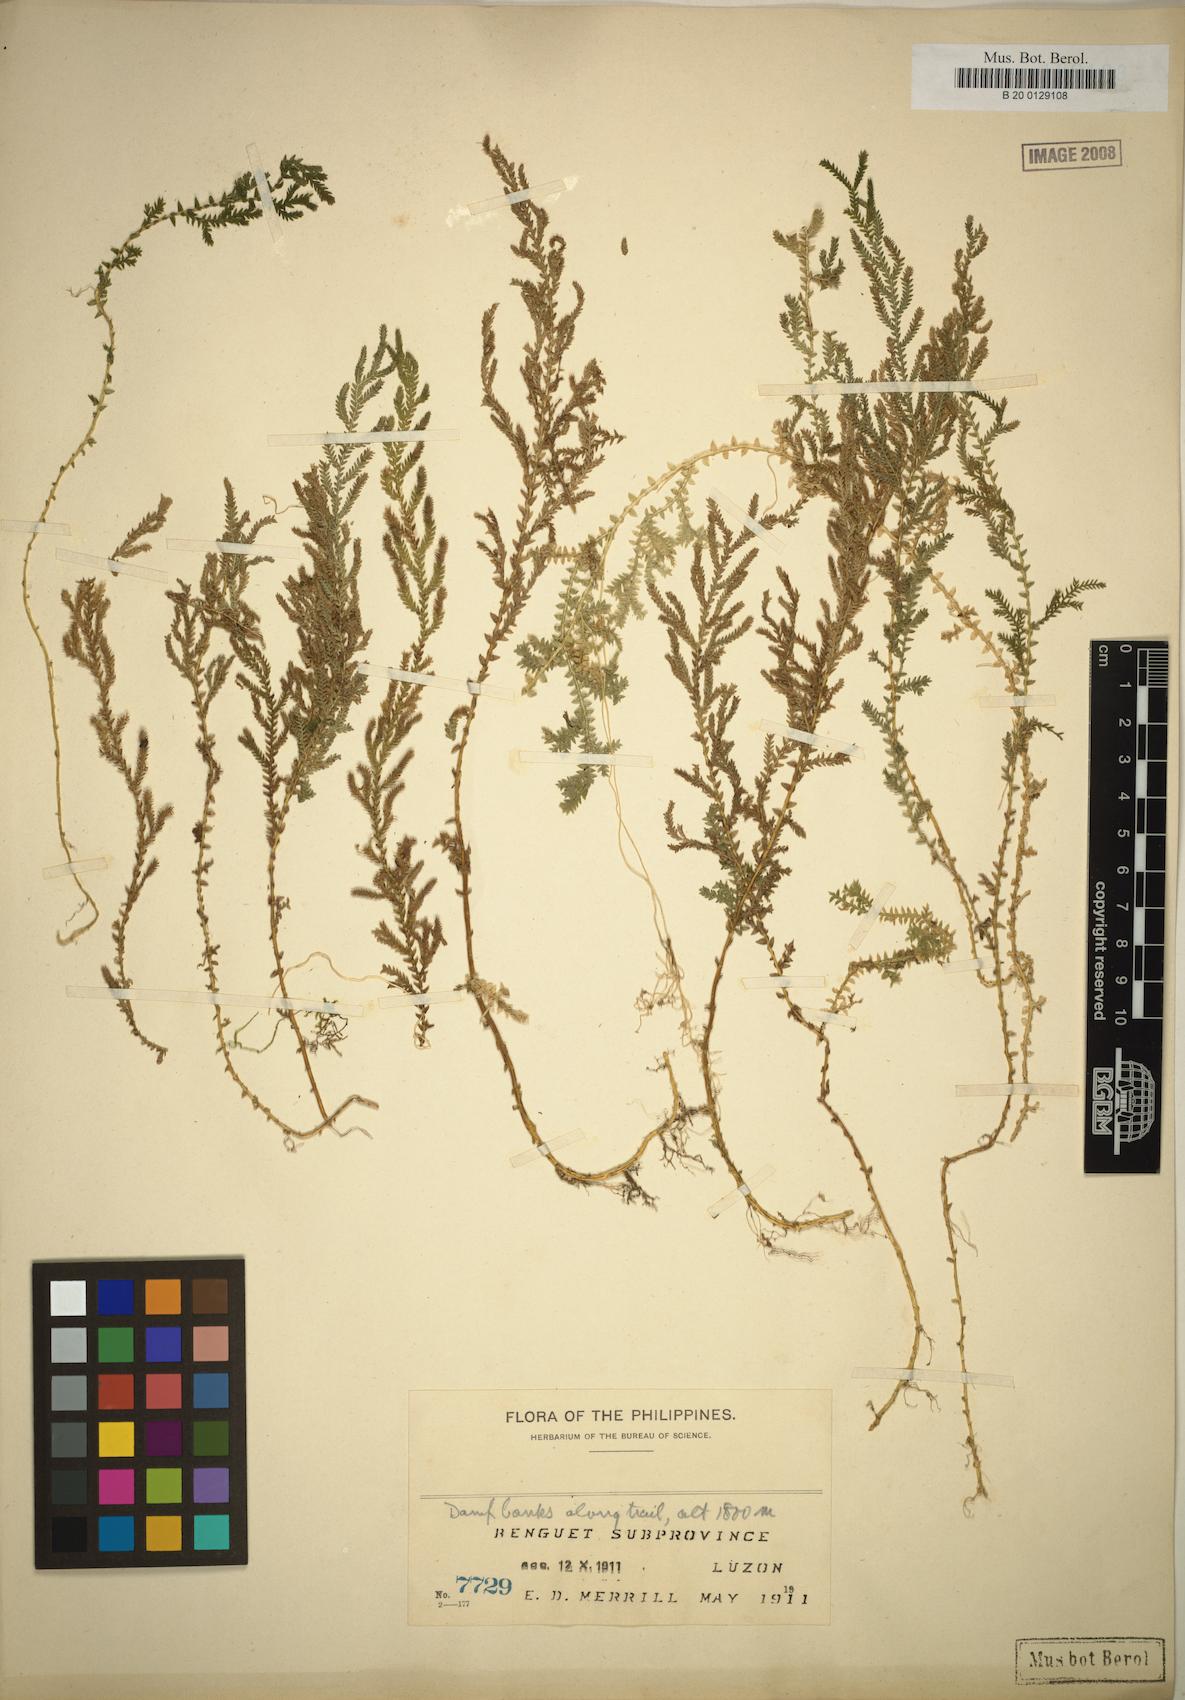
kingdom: Plantae
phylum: Tracheophyta
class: Lycopodiopsida
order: Selaginellales
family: Selaginellaceae
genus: Selaginella
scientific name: Selaginella eschscholzii
